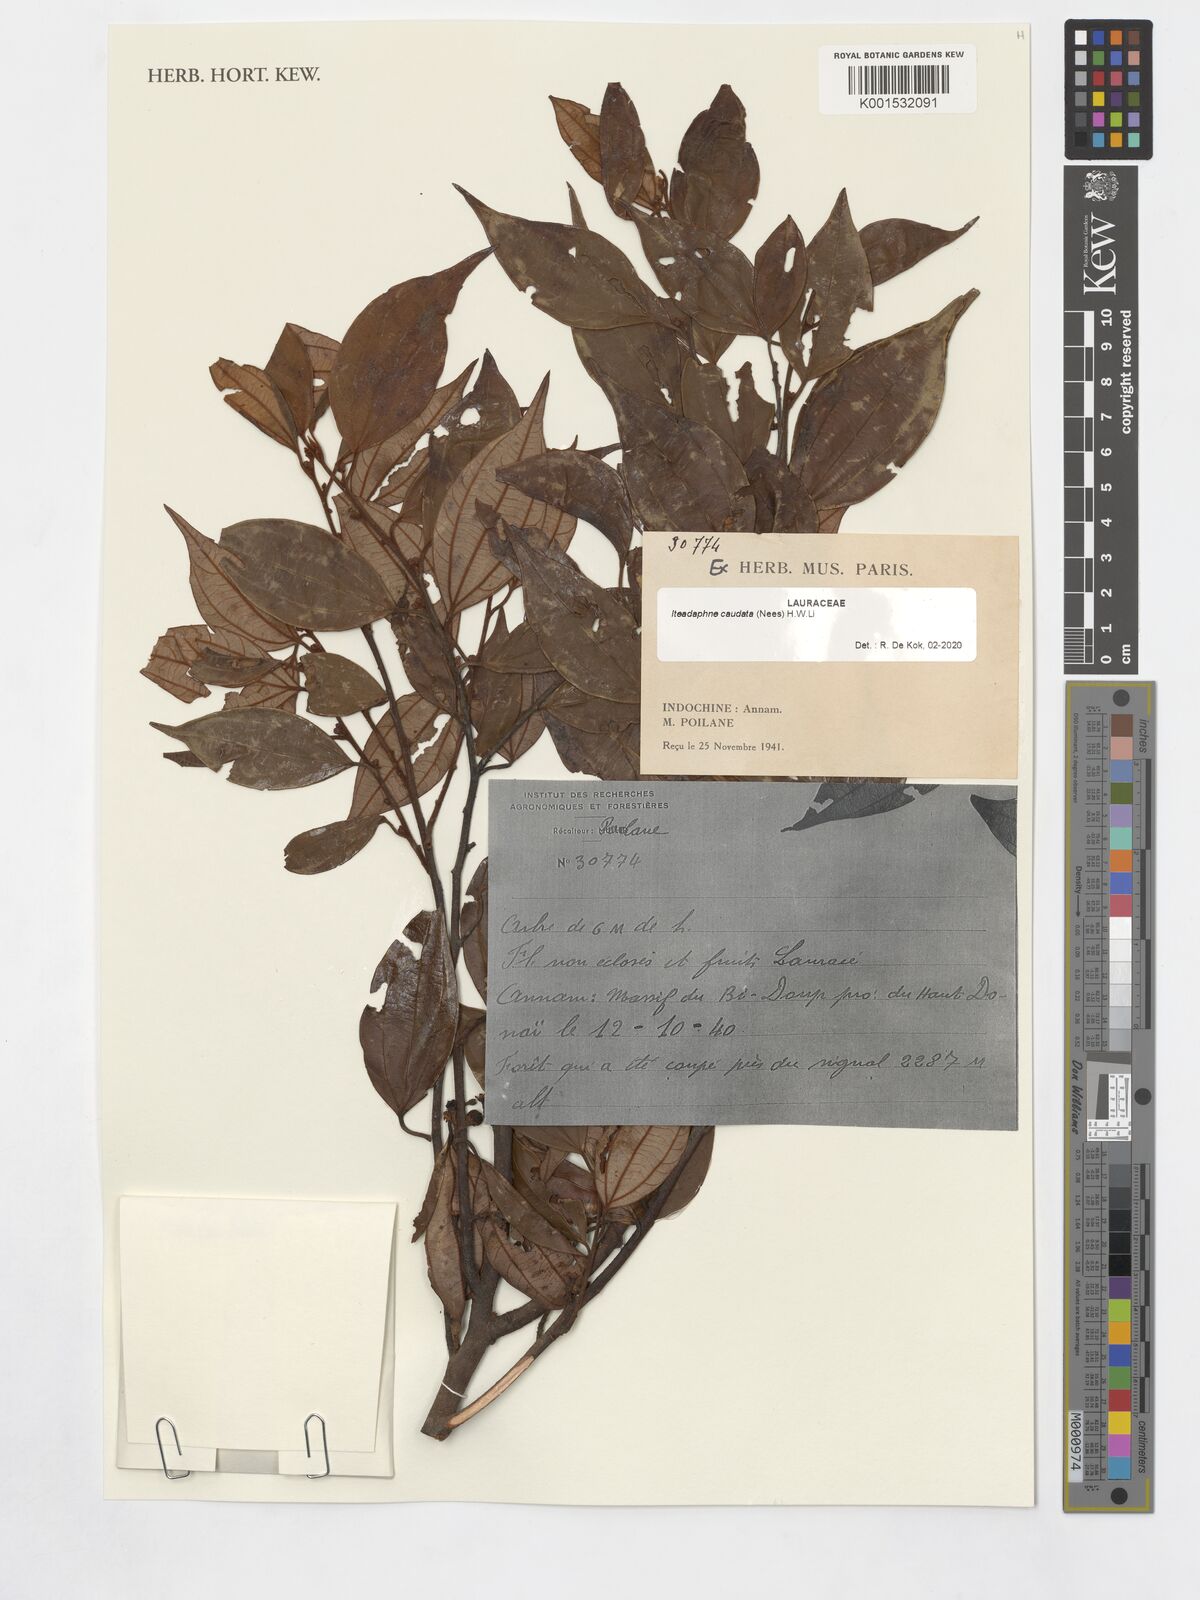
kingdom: Plantae
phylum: Tracheophyta
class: Magnoliopsida
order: Laurales
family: Lauraceae
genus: Lindera
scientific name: Lindera caudata
